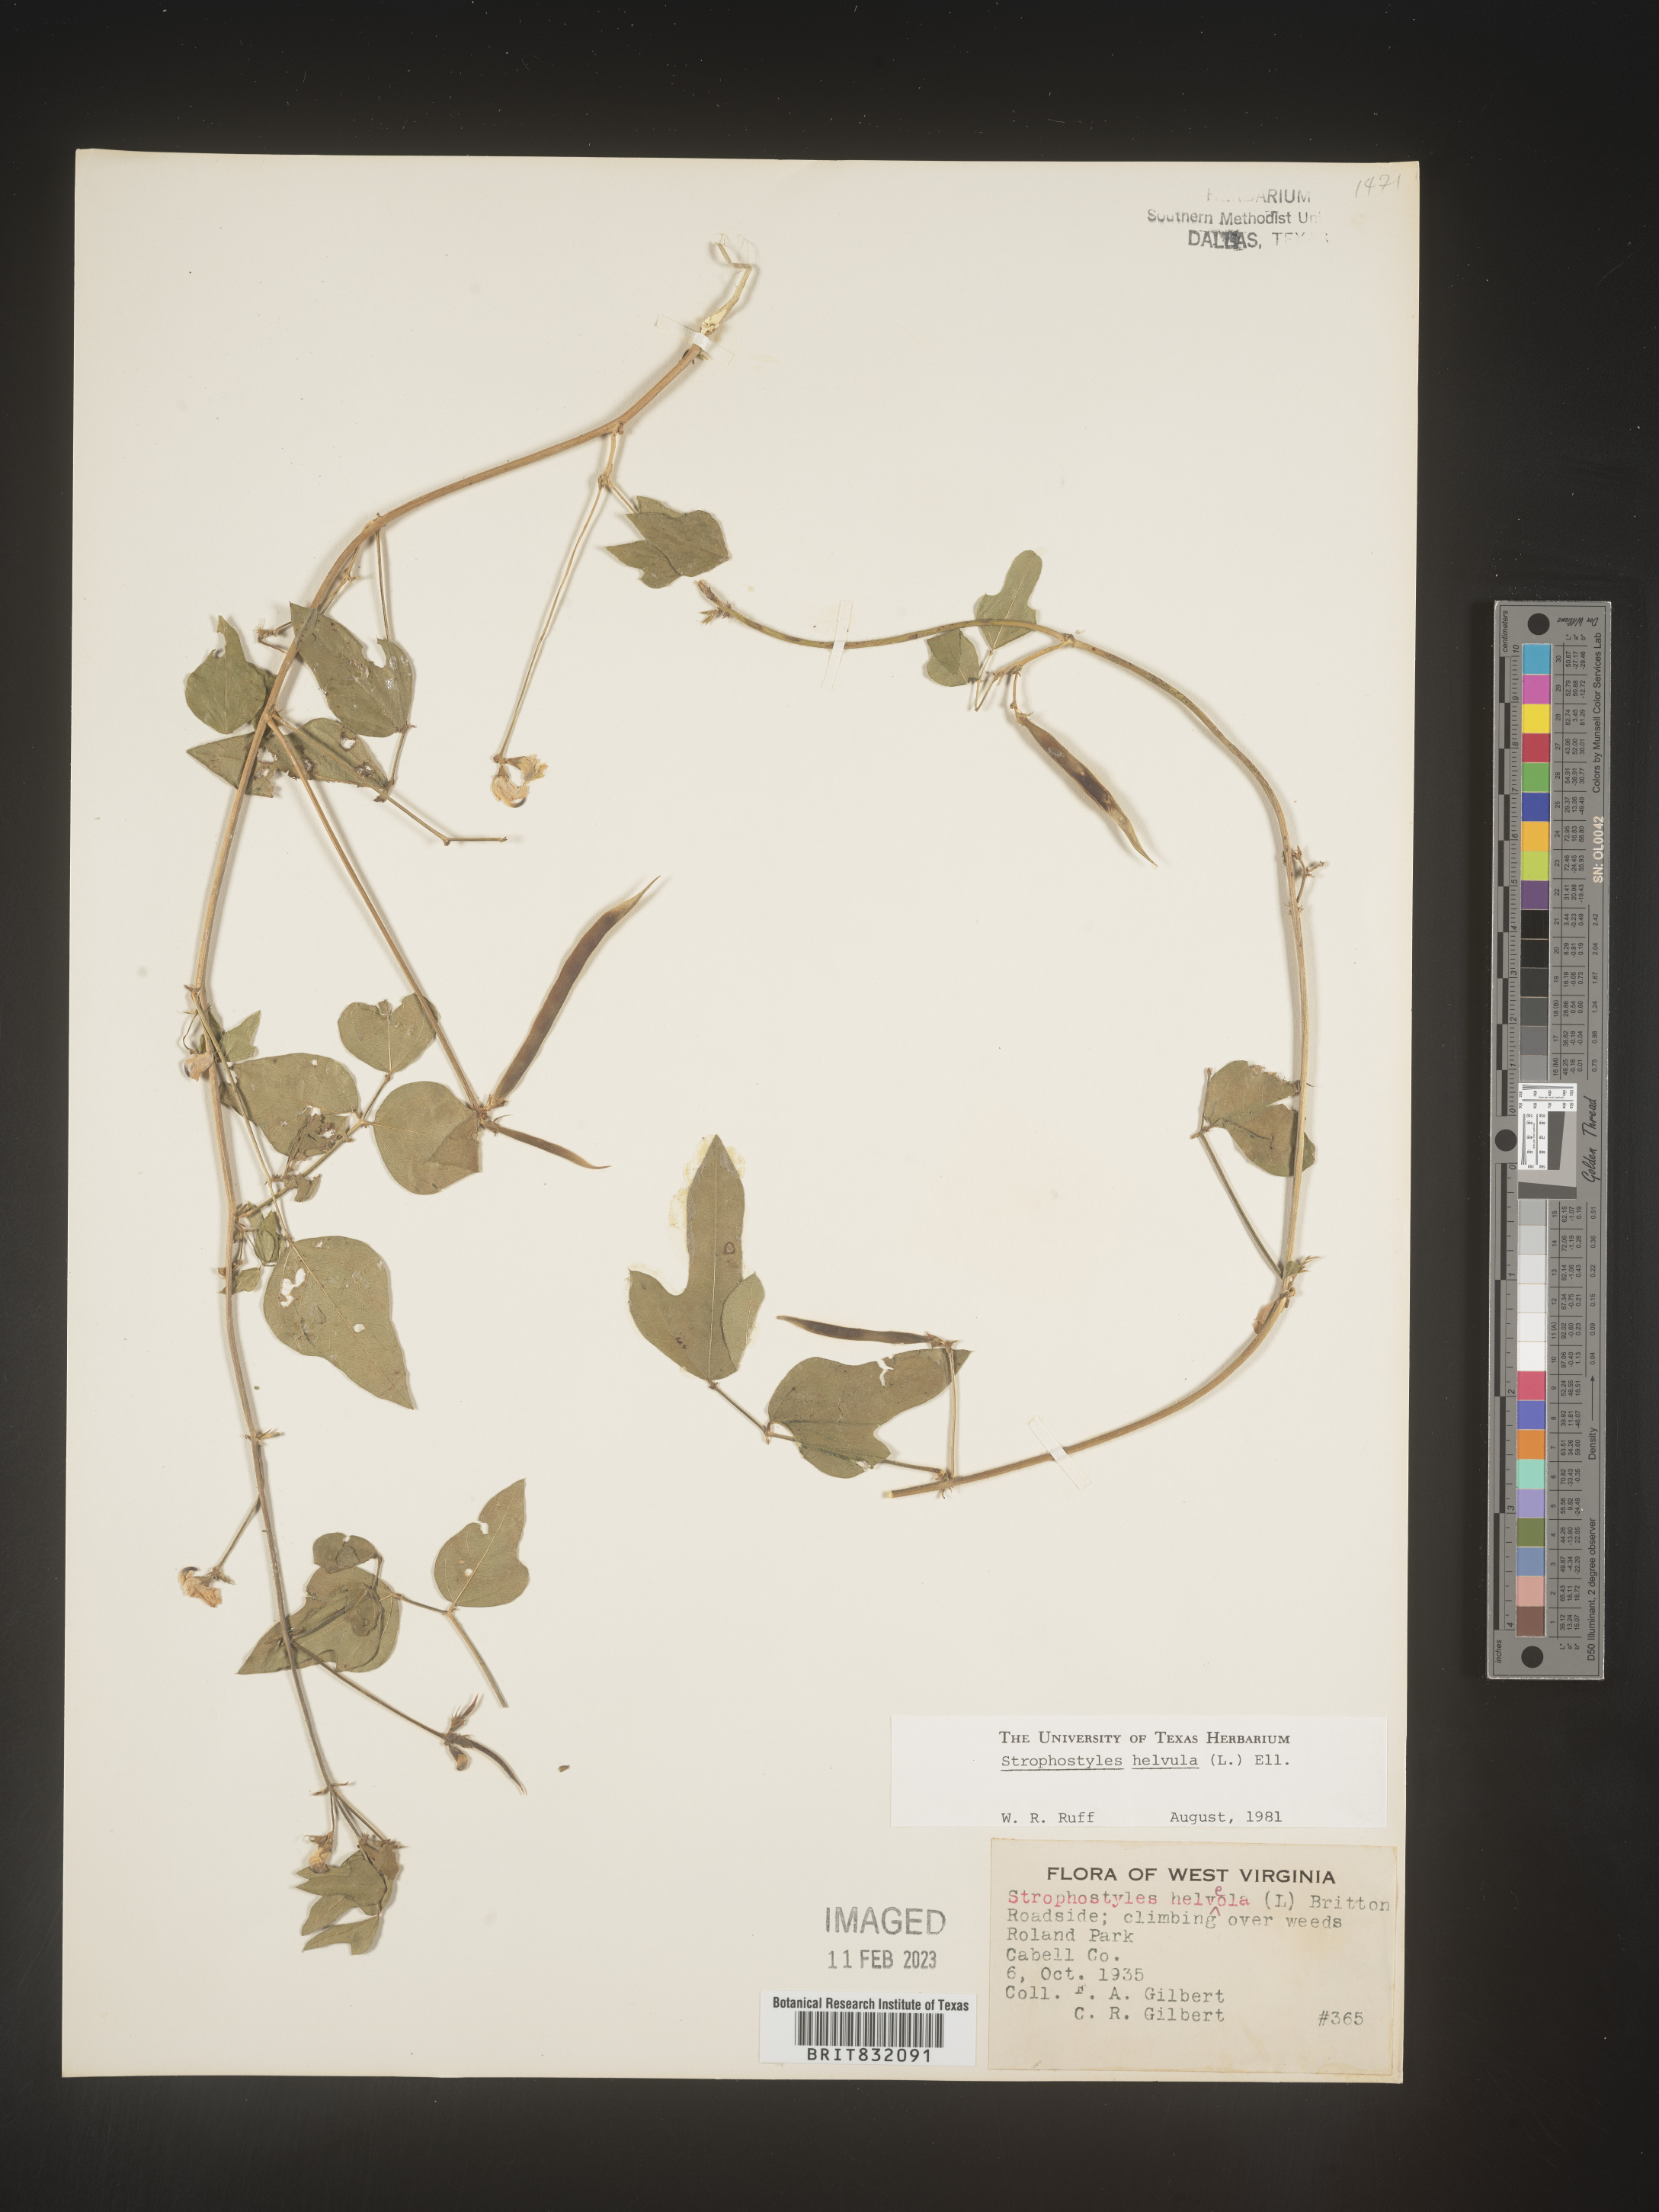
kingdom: Plantae
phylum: Tracheophyta
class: Magnoliopsida
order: Fabales
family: Fabaceae
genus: Strophostyles
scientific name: Strophostyles helvola
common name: Trailing wild bean
